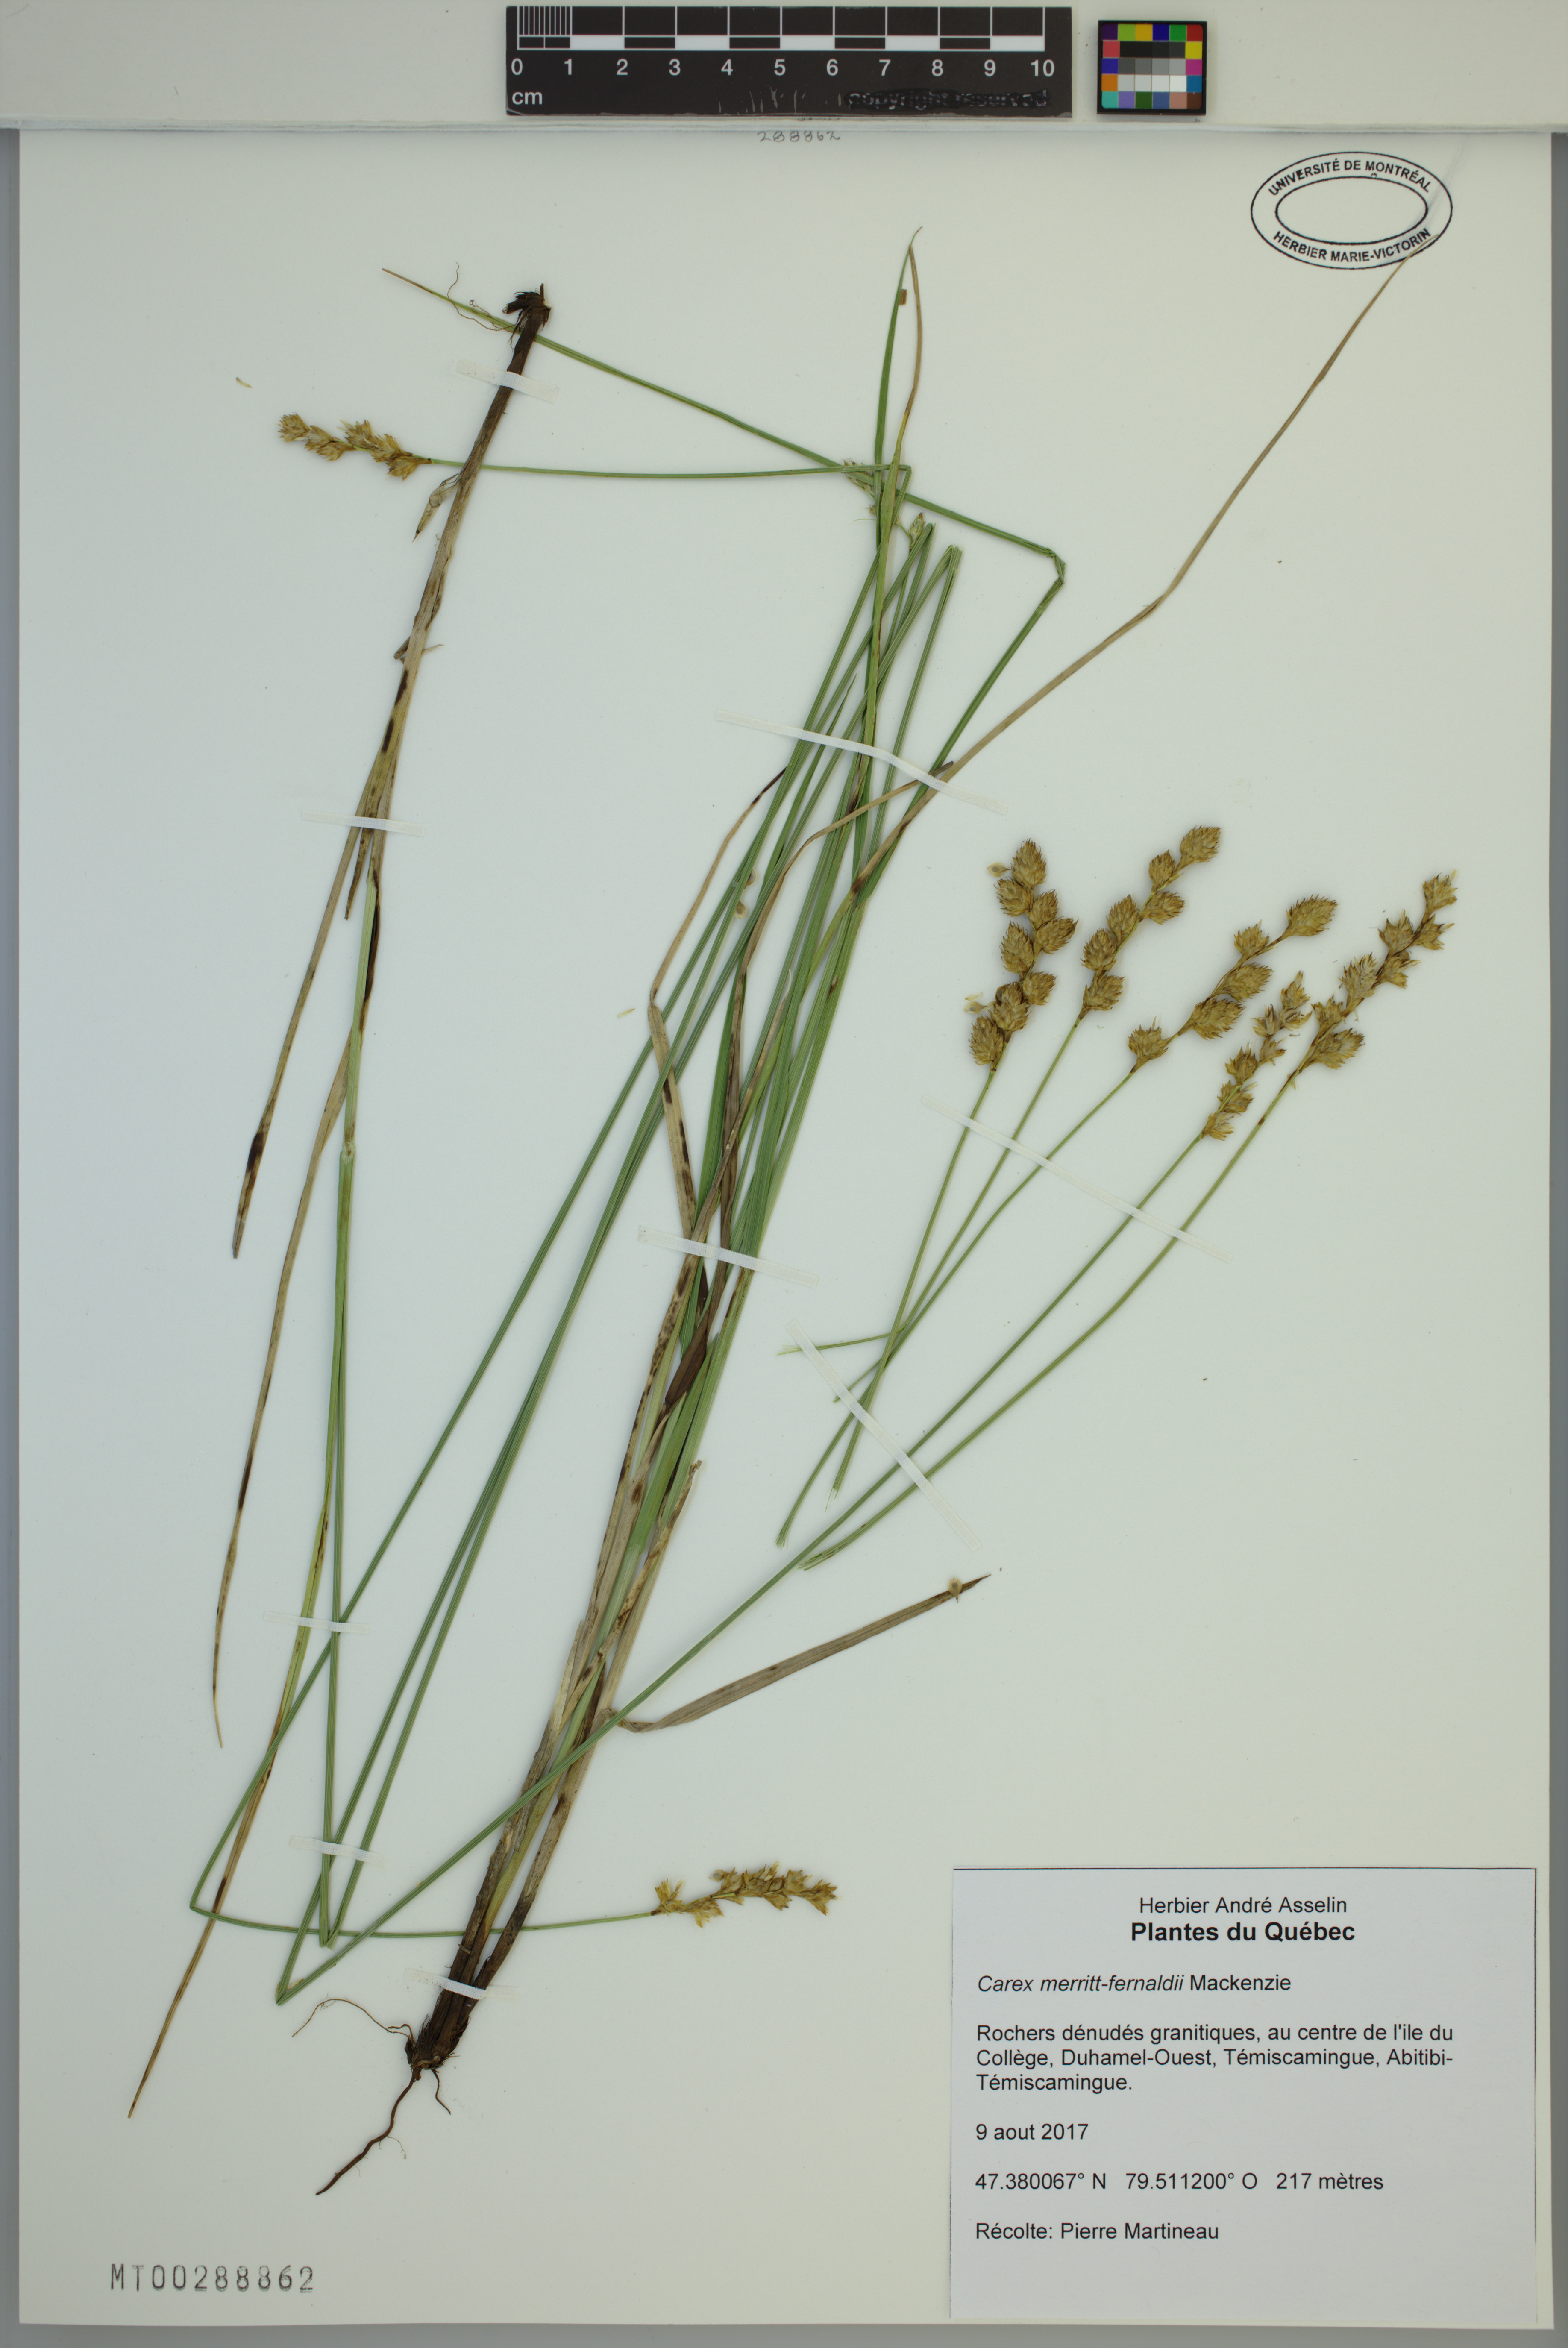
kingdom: Plantae
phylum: Tracheophyta
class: Liliopsida
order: Poales
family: Cyperaceae
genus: Carex
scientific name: Carex merritt-fernaldii
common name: Fernald's oval sedge
